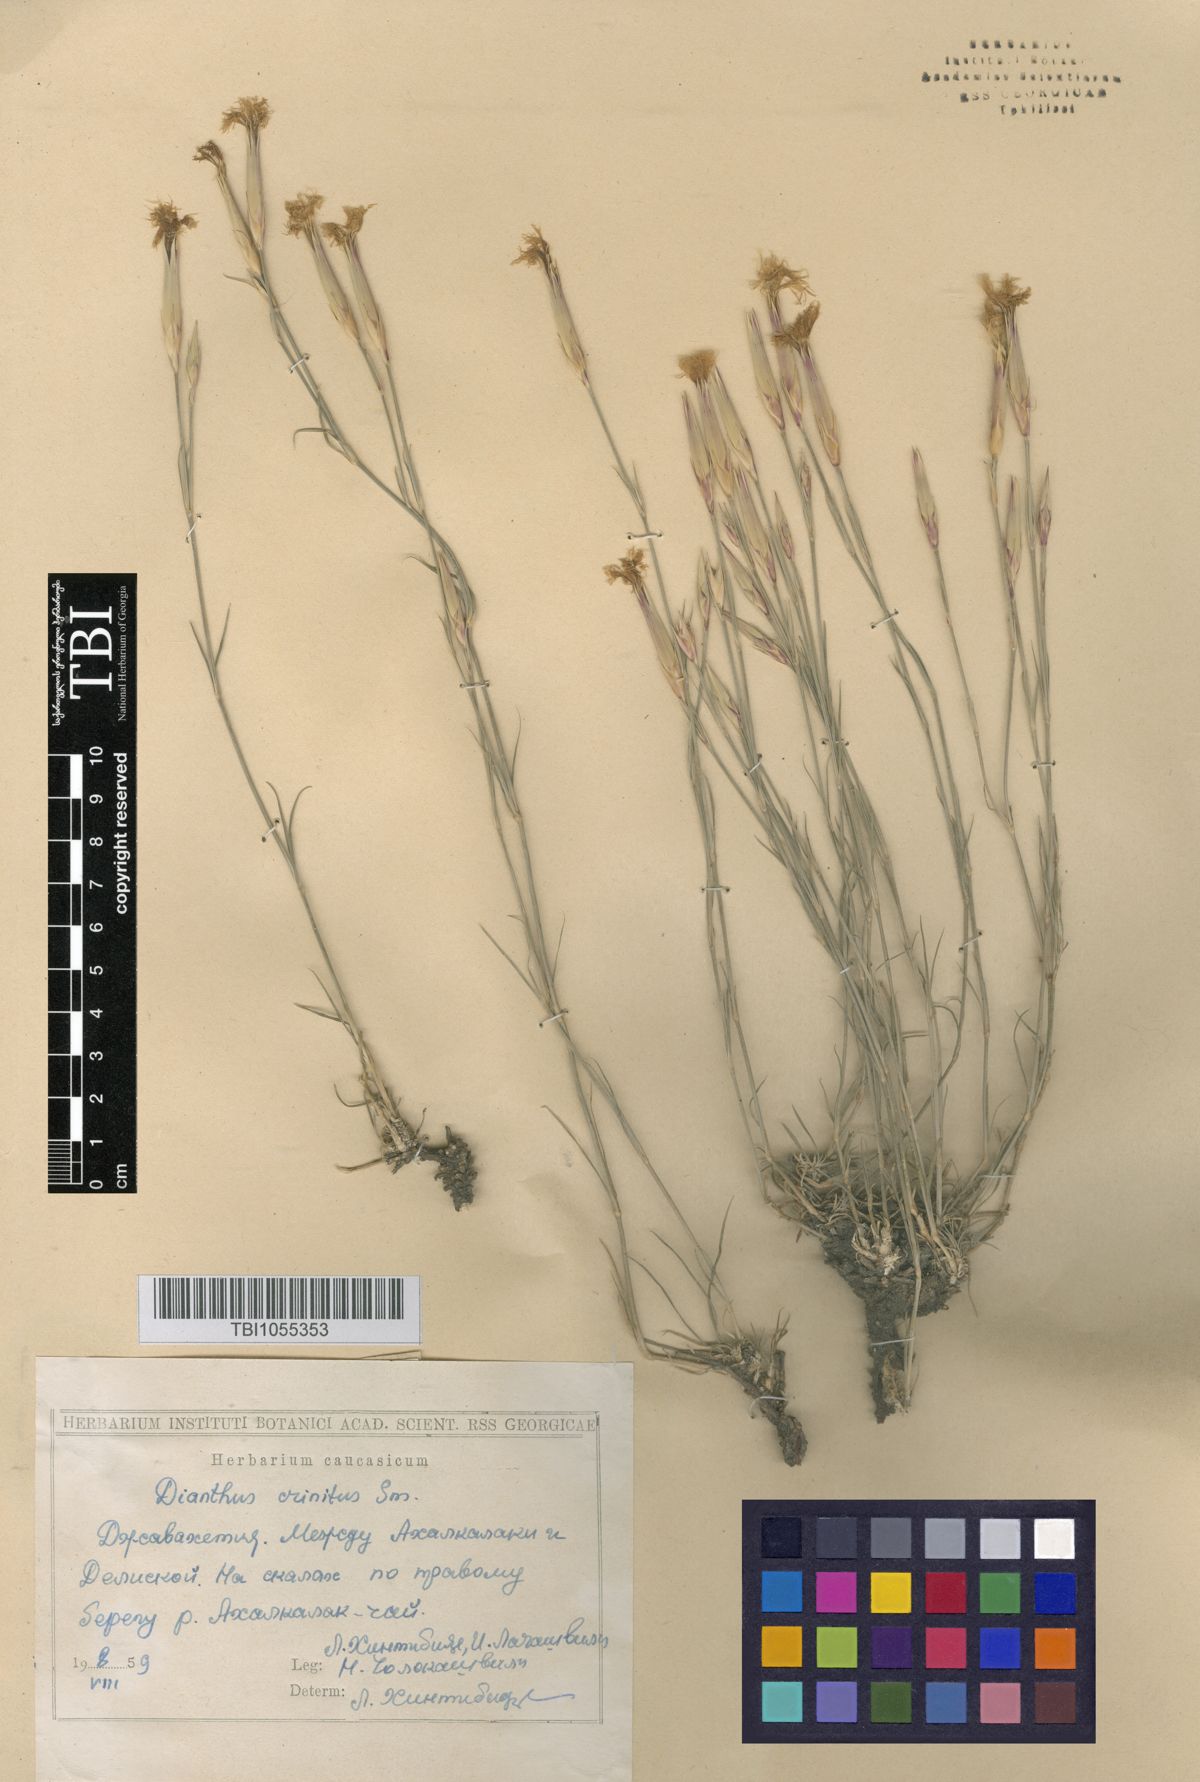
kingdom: Plantae
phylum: Tracheophyta
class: Magnoliopsida
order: Caryophyllales
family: Caryophyllaceae
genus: Dianthus
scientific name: Dianthus crinitus
